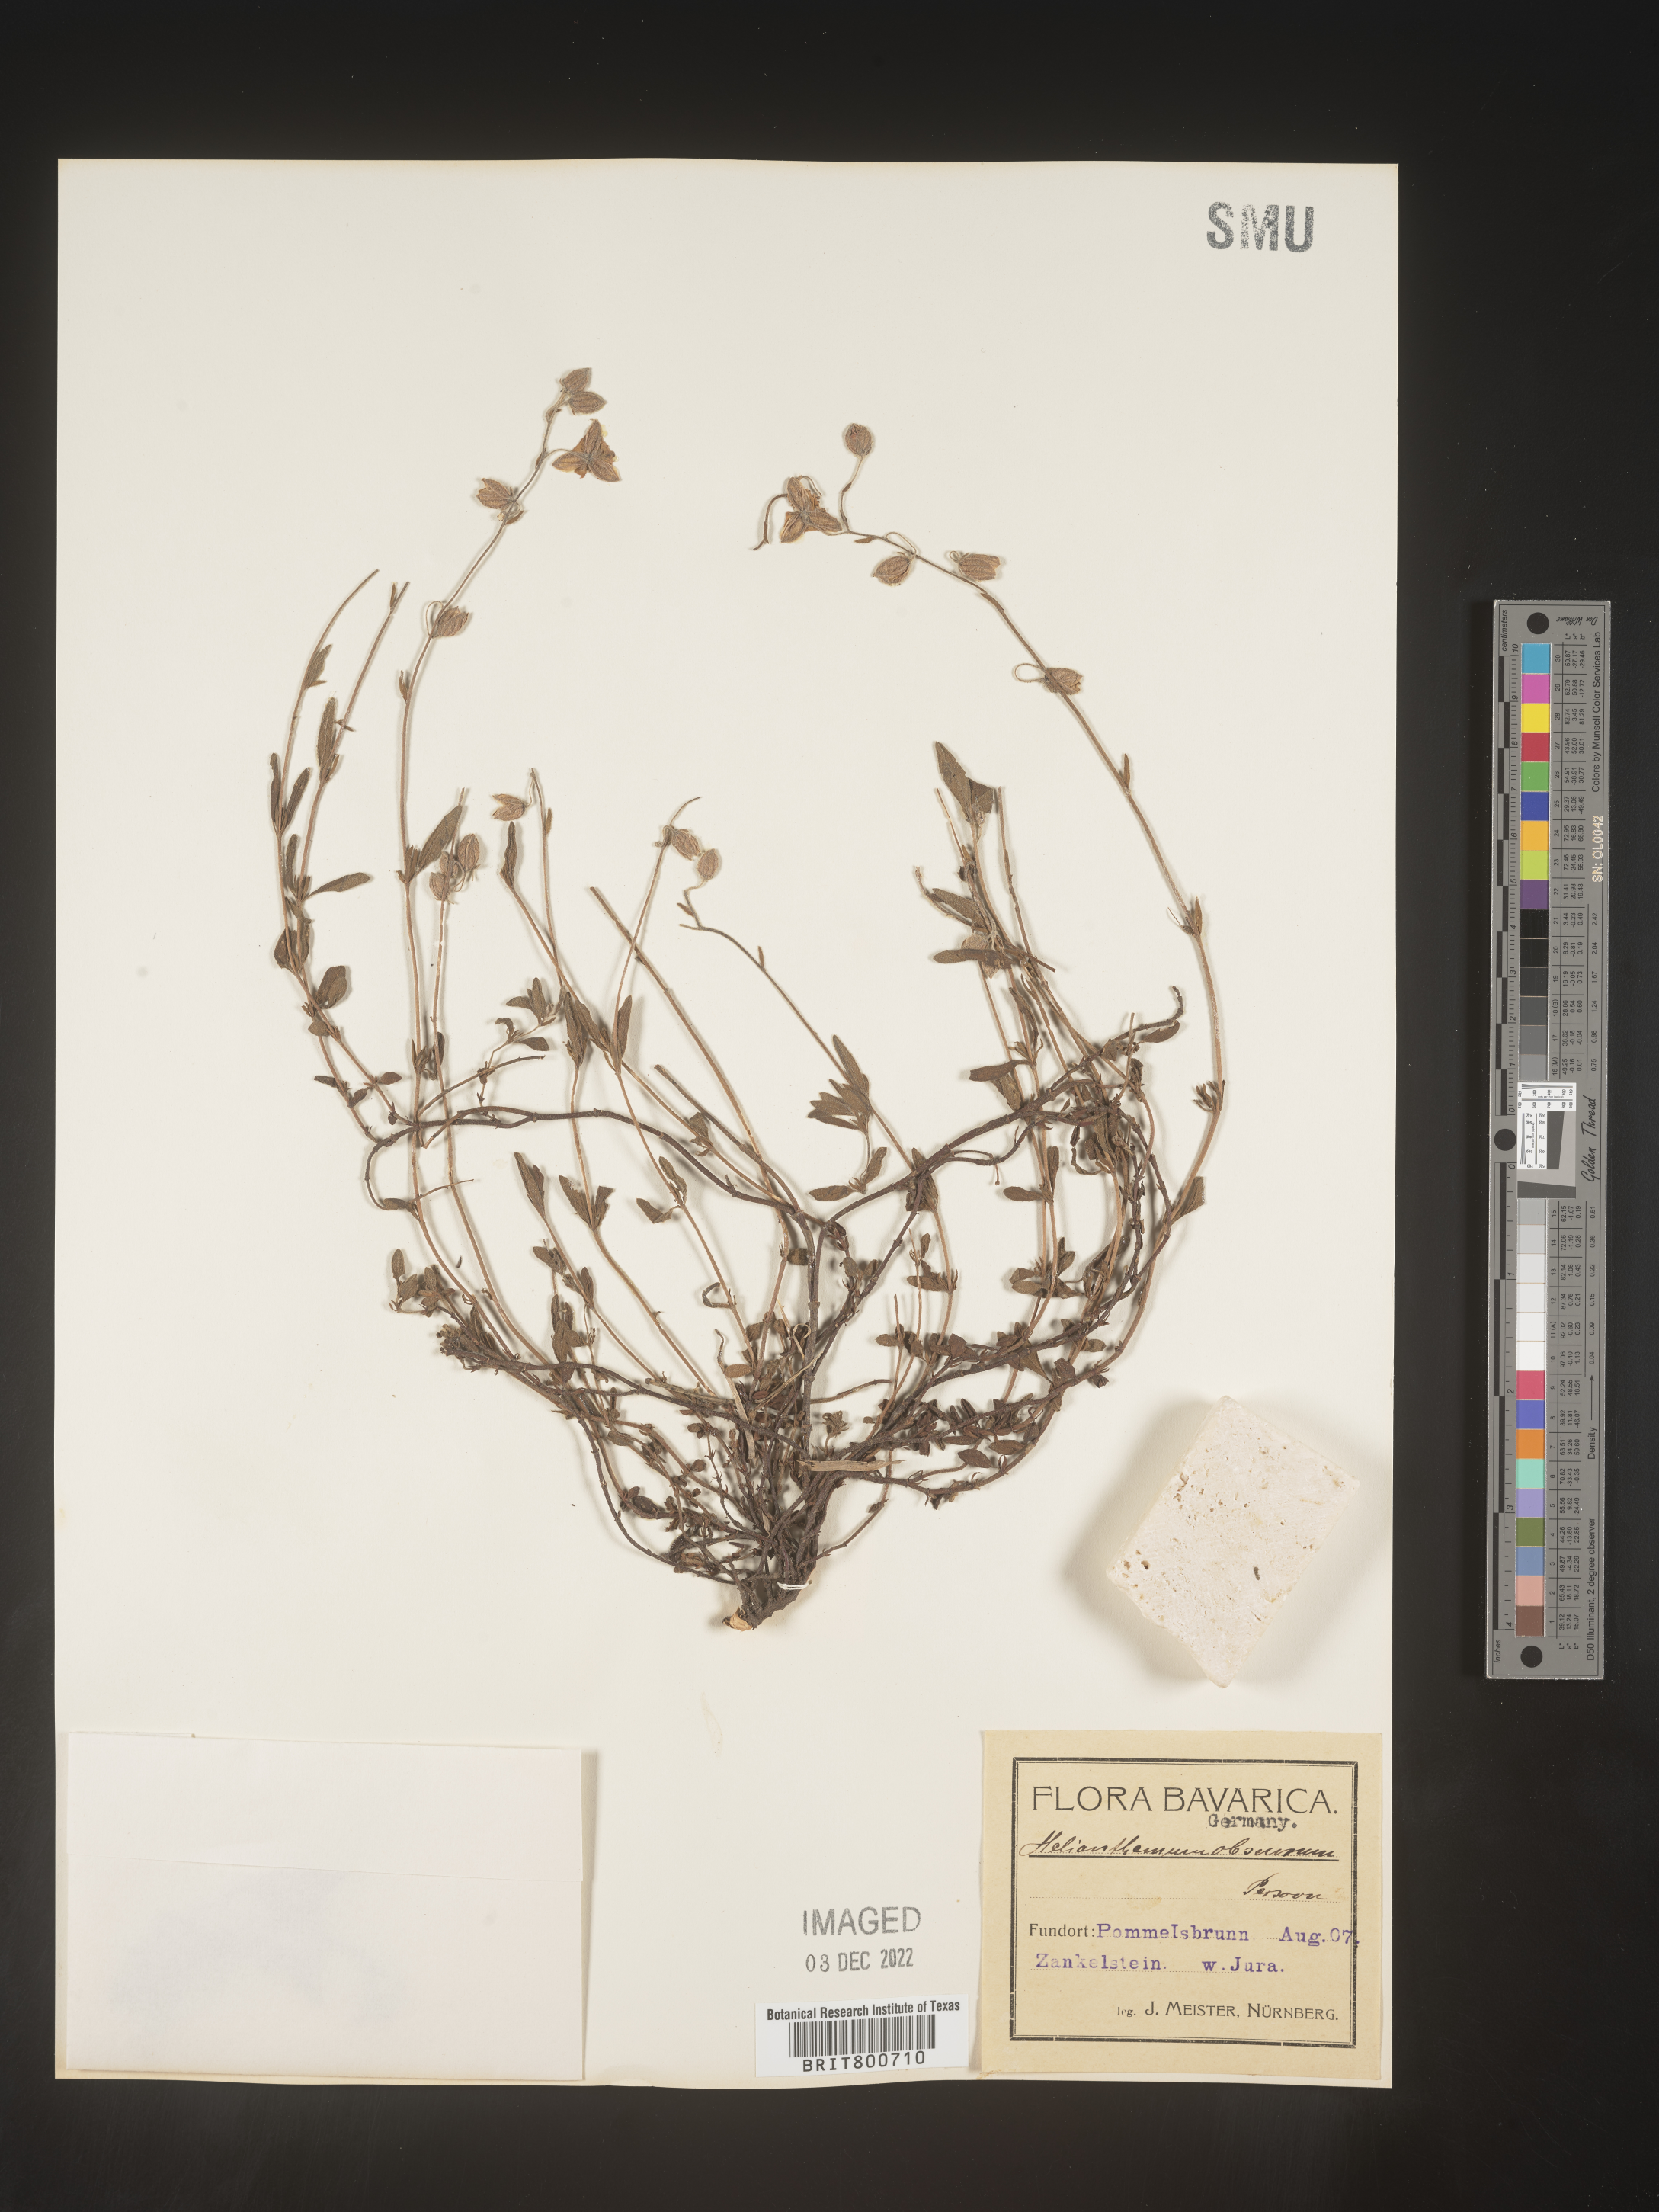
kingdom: Plantae
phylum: Tracheophyta
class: Magnoliopsida
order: Malvales
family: Cistaceae
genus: Helianthemum
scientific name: Helianthemum
